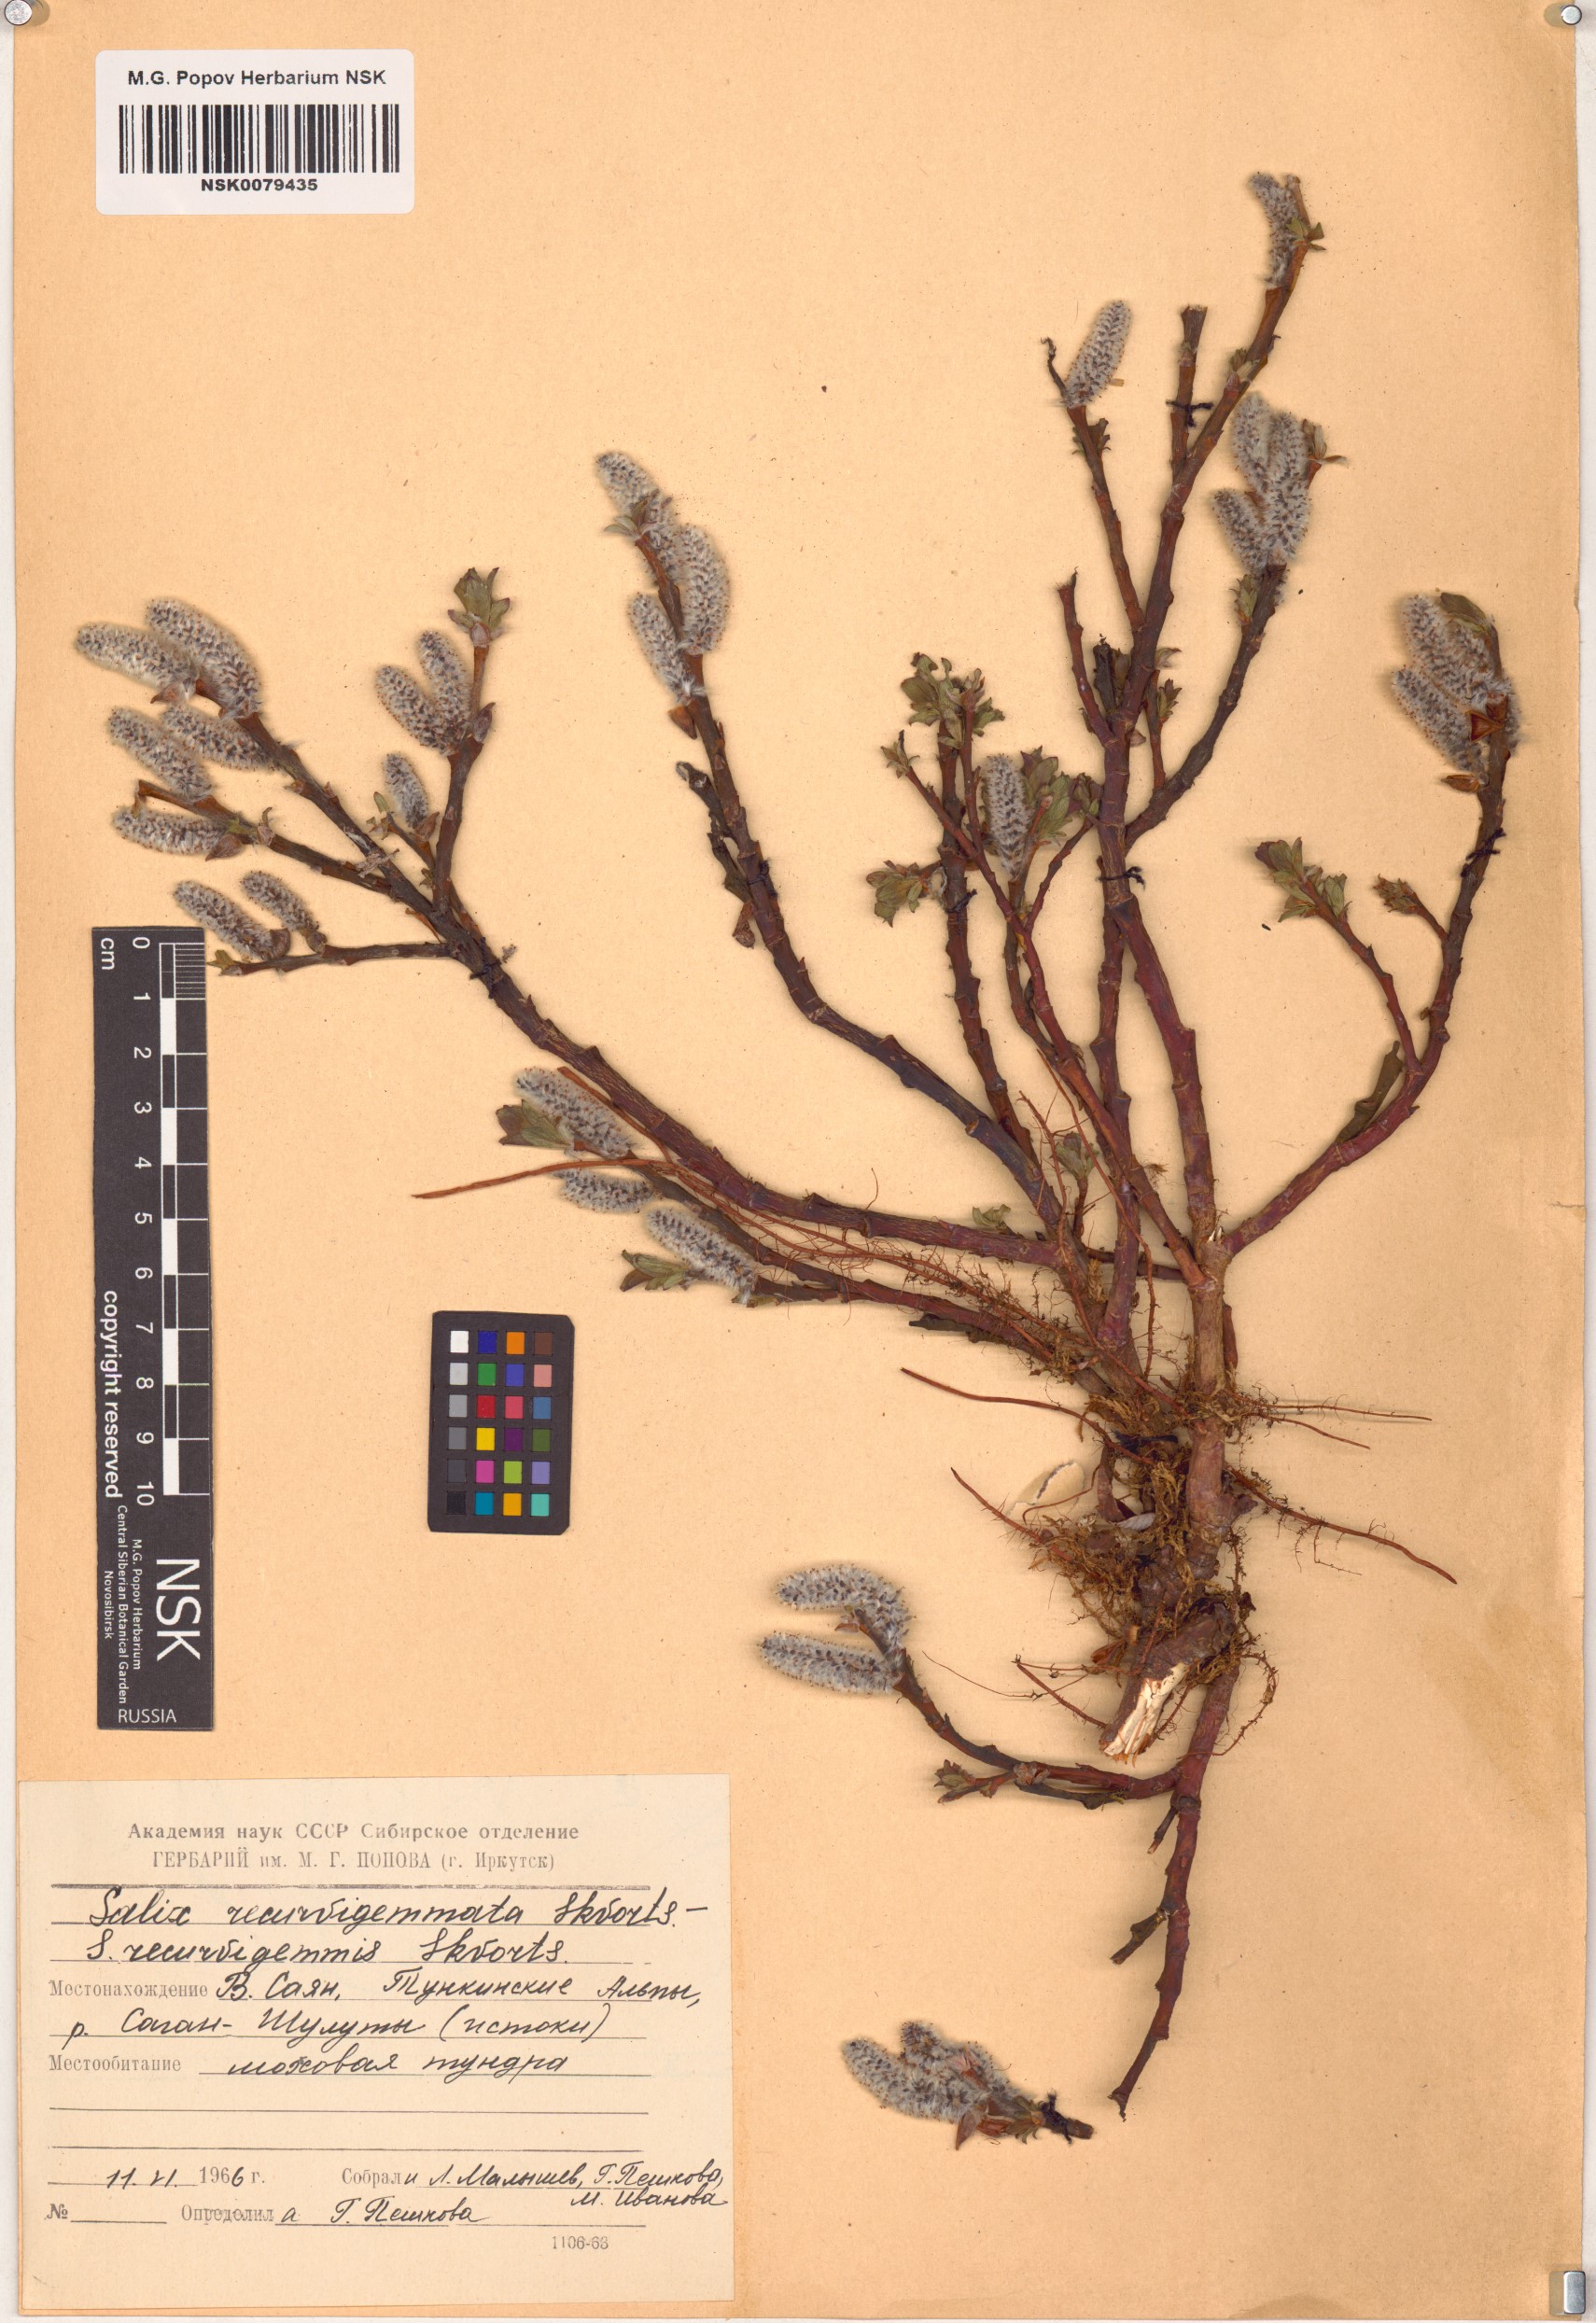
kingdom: Plantae
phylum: Tracheophyta
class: Magnoliopsida
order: Malpighiales
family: Salicaceae
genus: Salix
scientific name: Salix recurvigemmata
